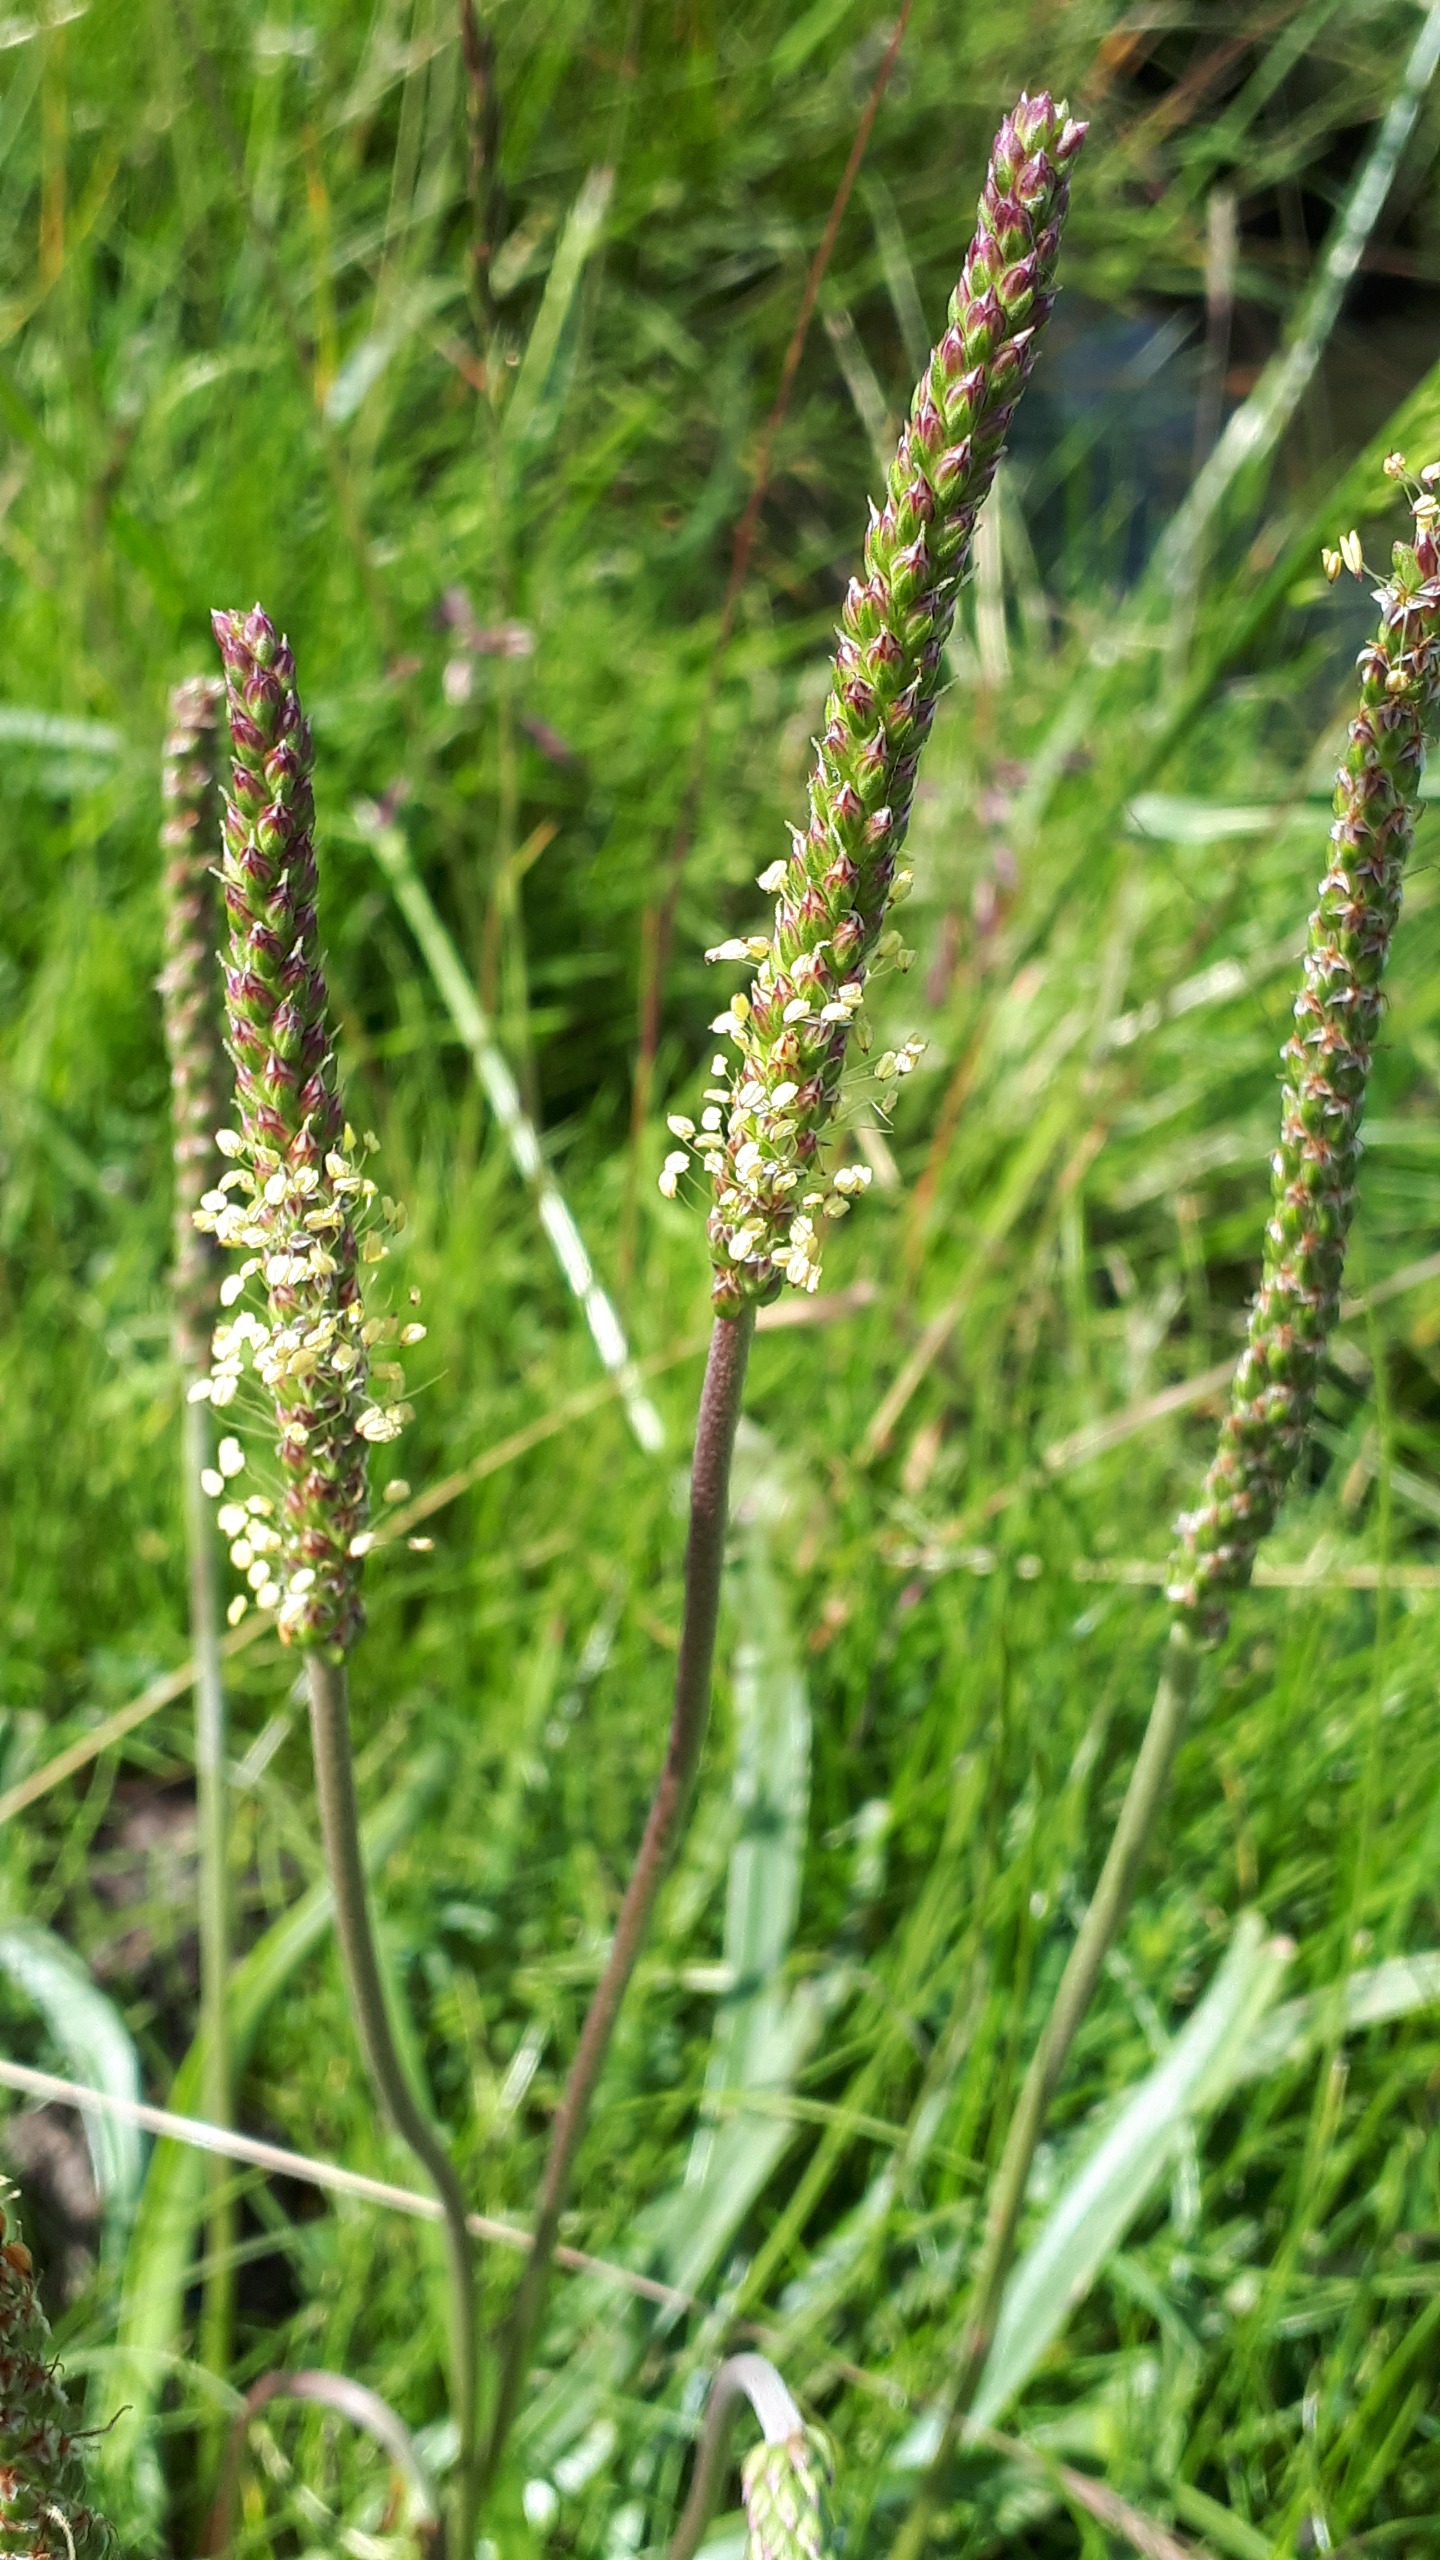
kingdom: Plantae
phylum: Tracheophyta
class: Magnoliopsida
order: Lamiales
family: Plantaginaceae
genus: Plantago
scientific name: Plantago maritima
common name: Strand-vejbred
